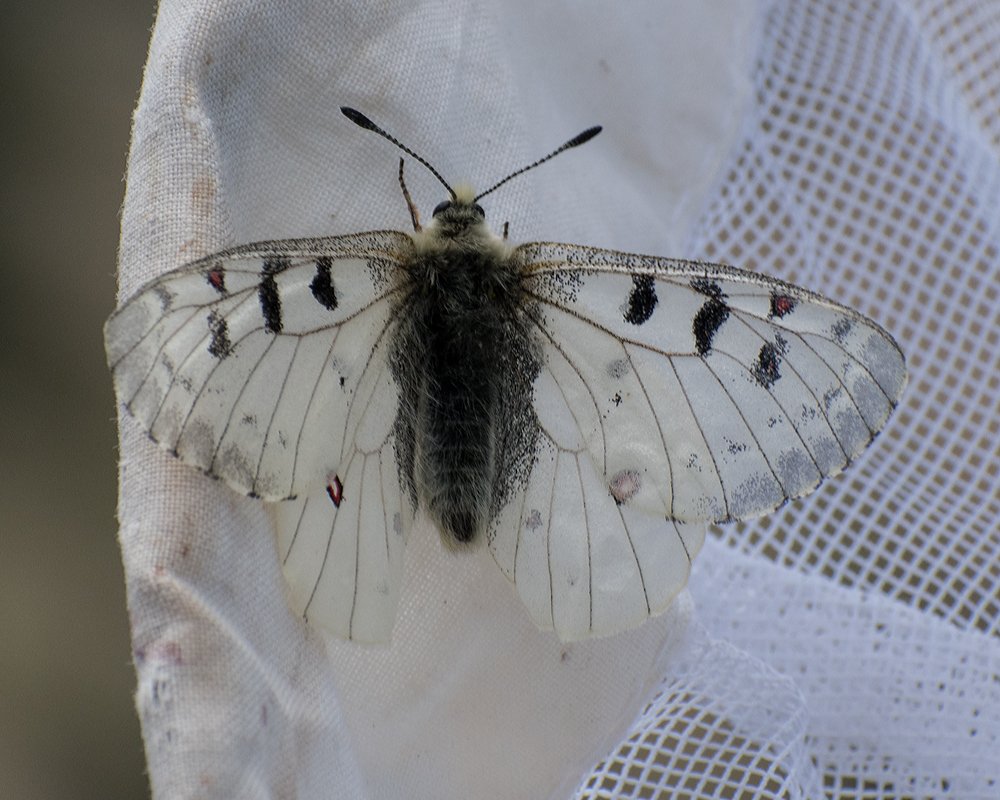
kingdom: Animalia
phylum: Arthropoda
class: Insecta
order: Lepidoptera
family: Papilionidae
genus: Parnassius
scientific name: Parnassius smintheus
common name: Rocky Mountain Parnassian
